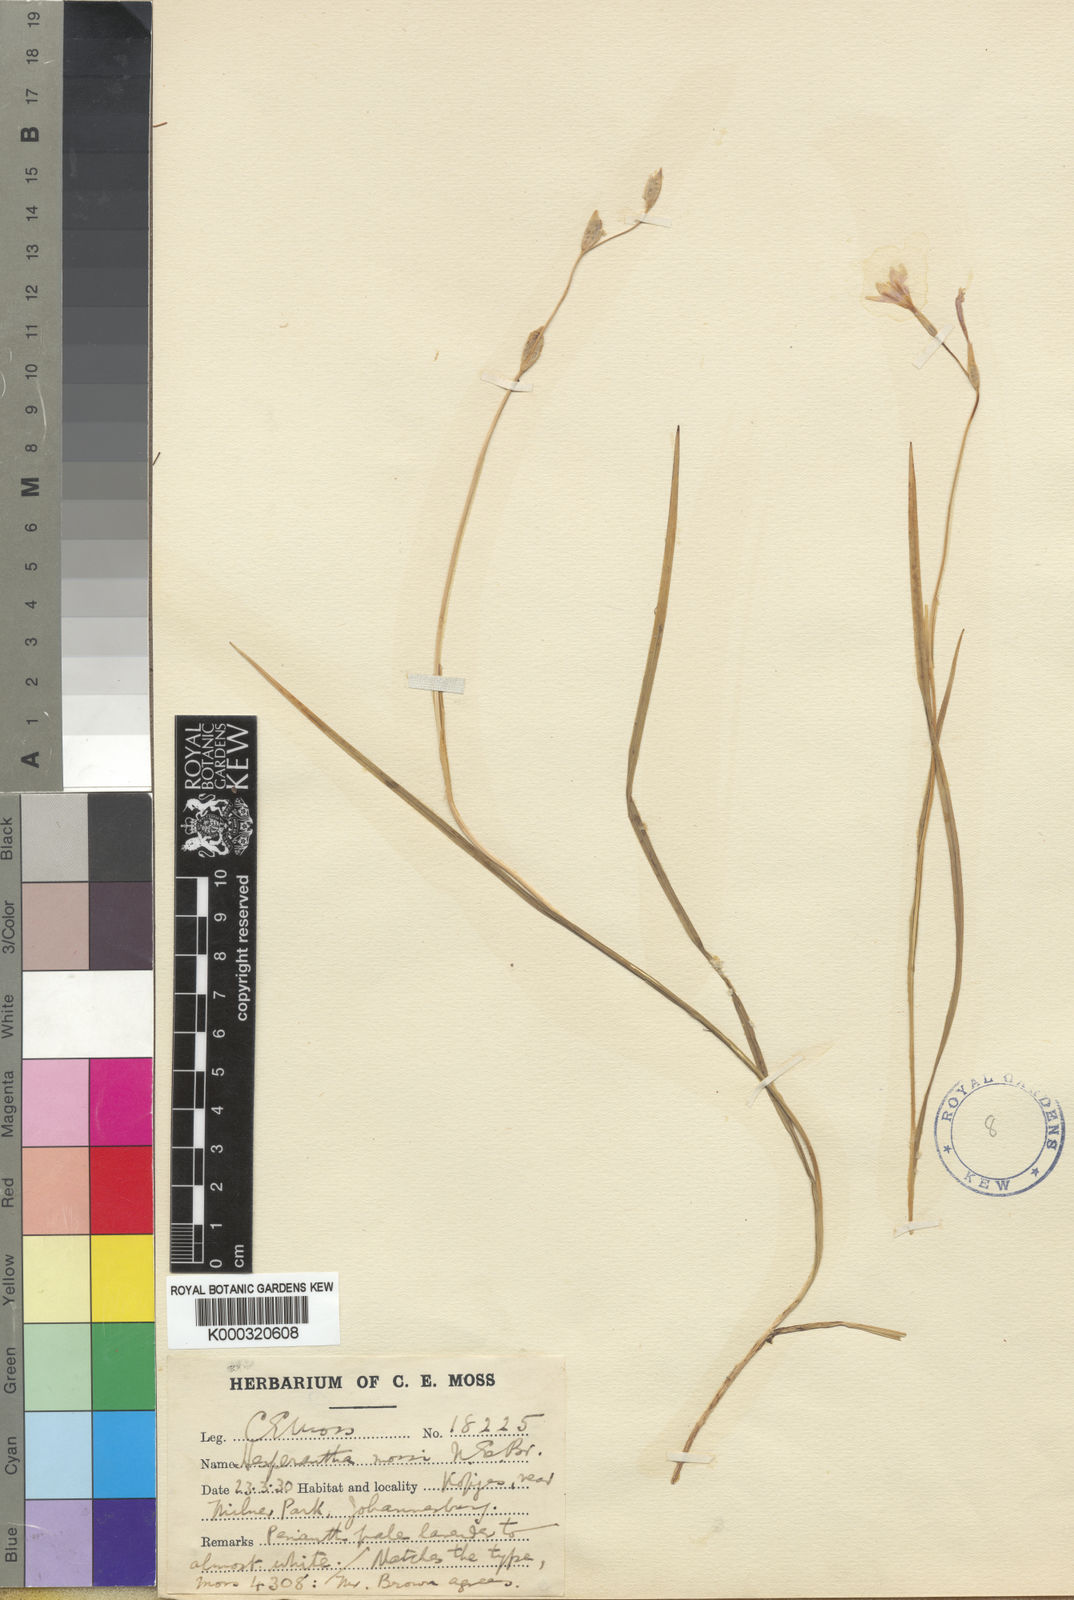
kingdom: Plantae
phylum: Tracheophyta
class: Liliopsida
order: Asparagales
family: Iridaceae
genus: Hesperantha
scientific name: Hesperantha
